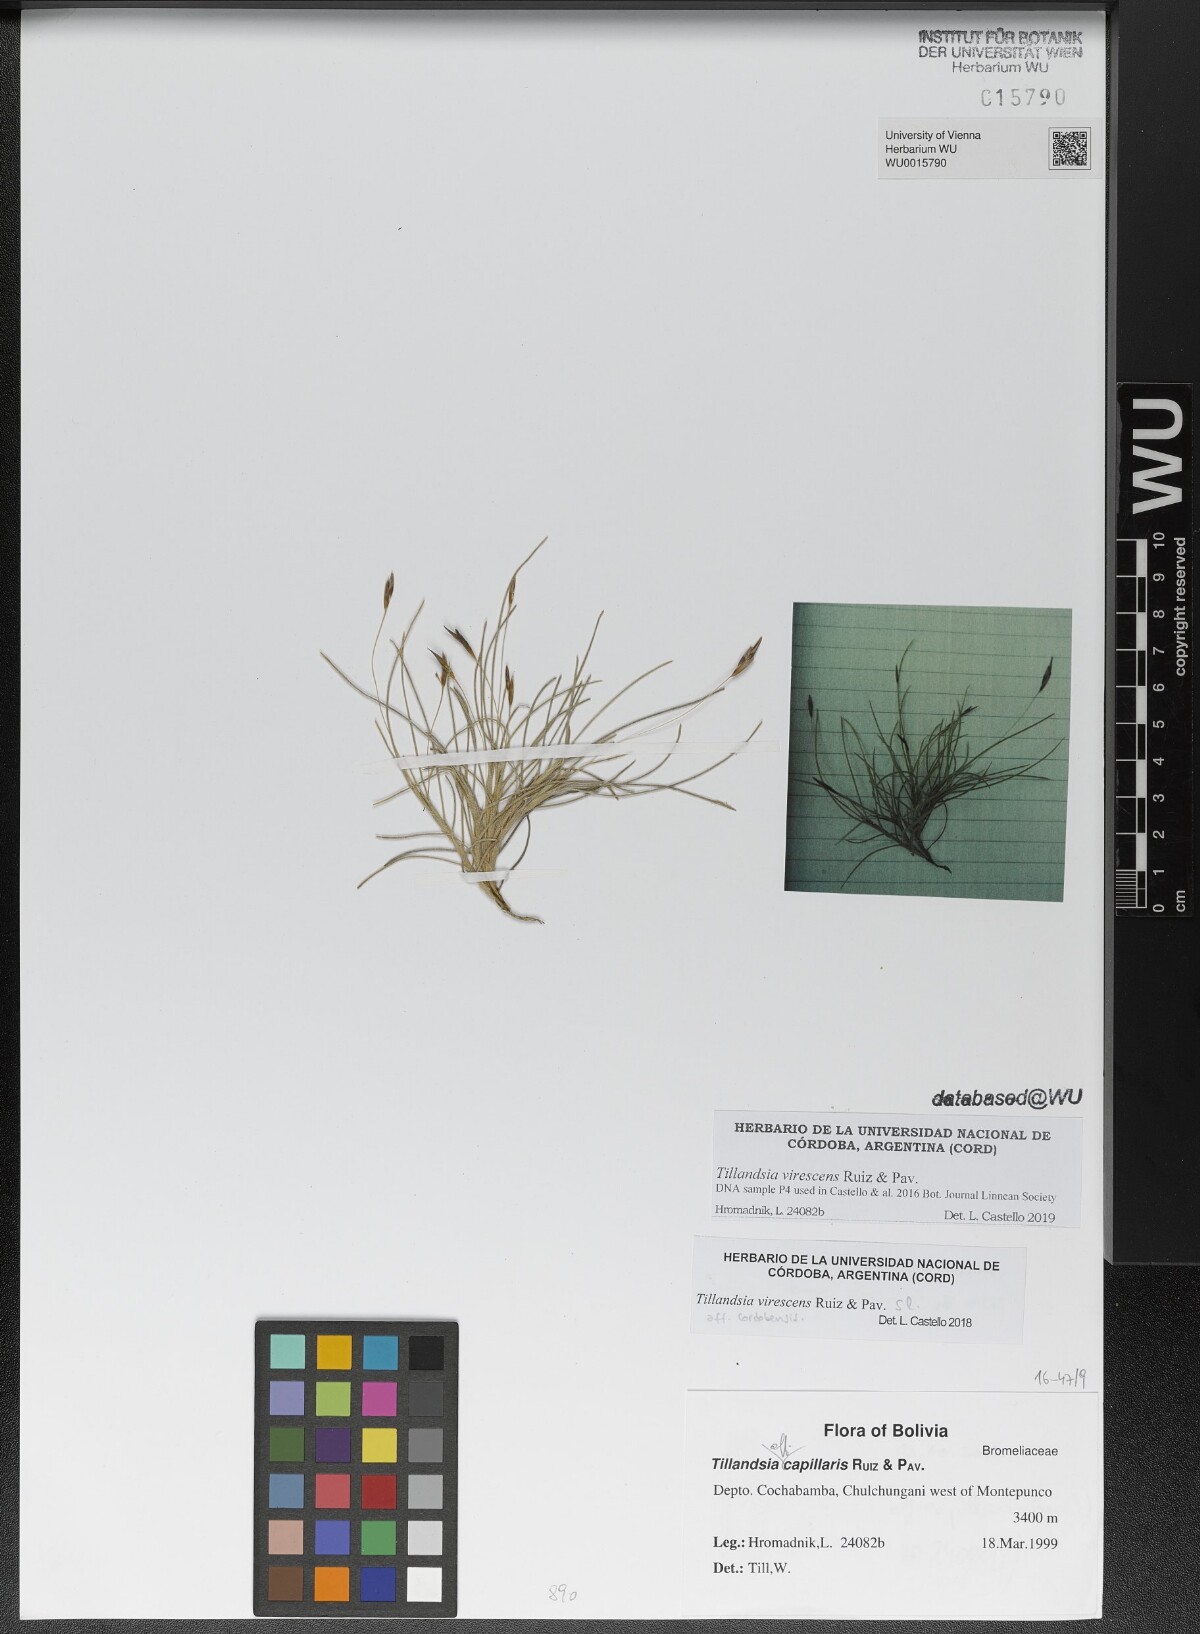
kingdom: Plantae
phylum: Tracheophyta
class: Liliopsida
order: Poales
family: Bromeliaceae
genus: Tillandsia
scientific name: Tillandsia capillaris
